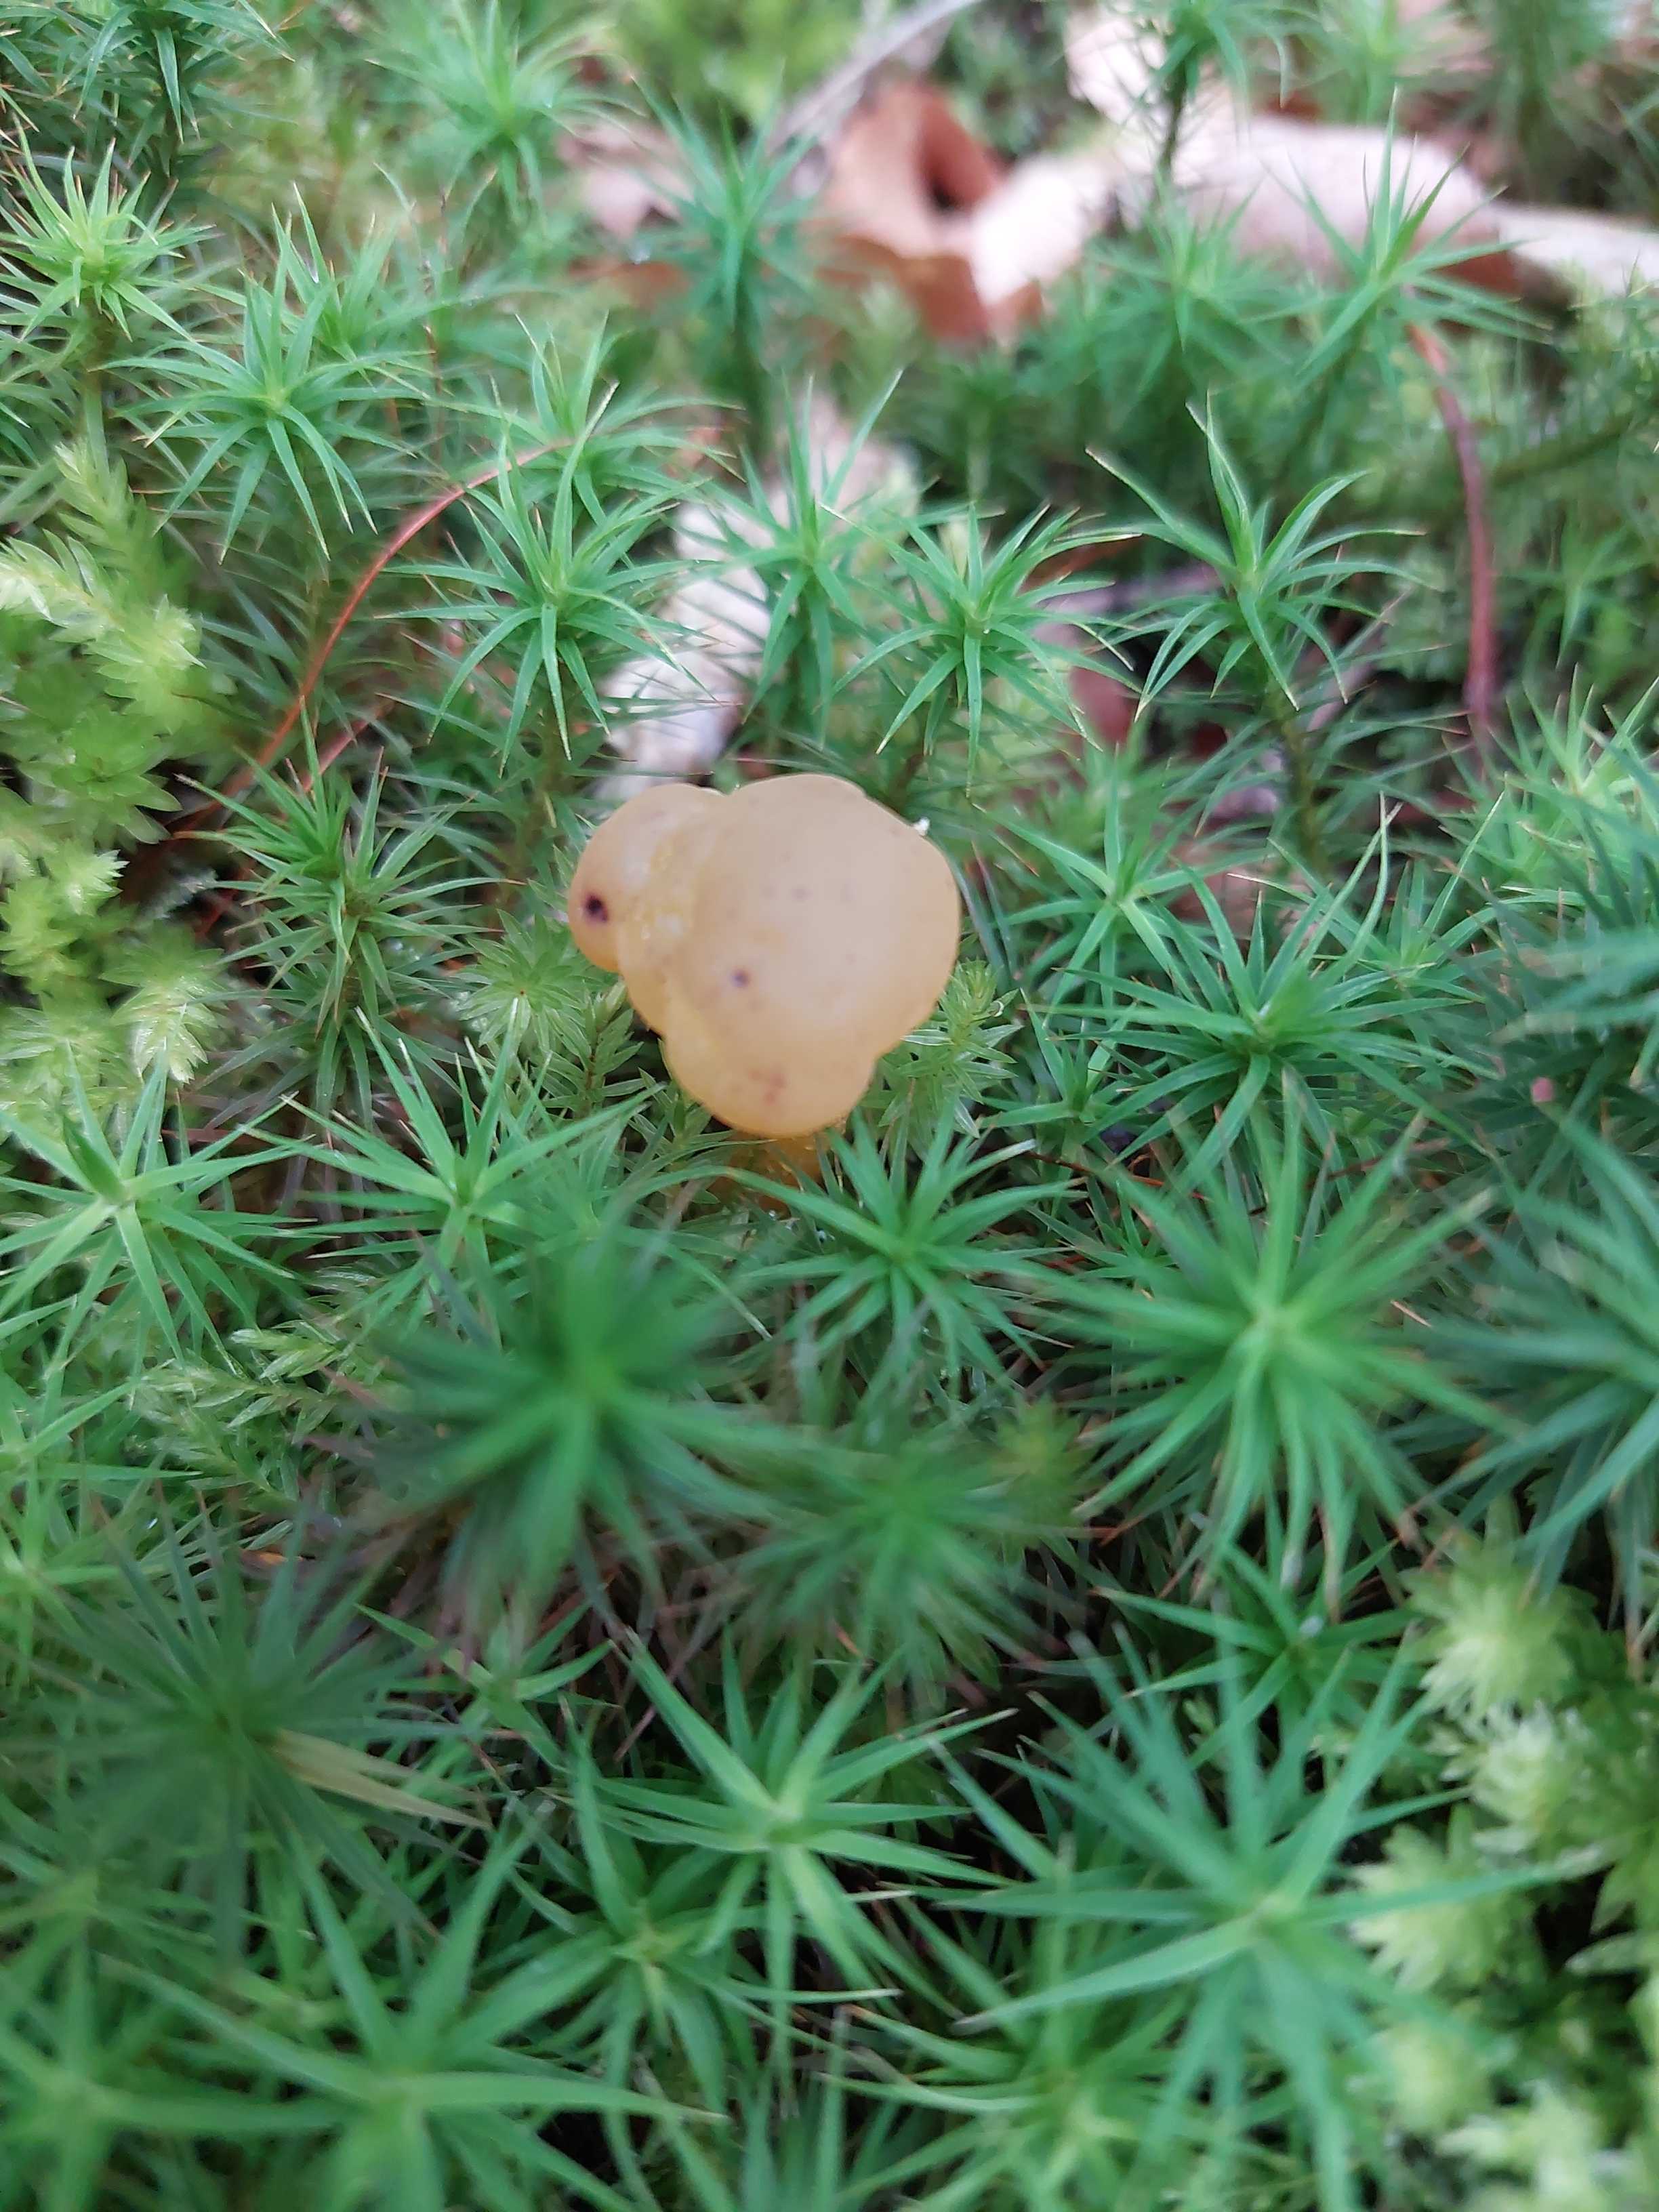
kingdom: Fungi
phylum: Ascomycota
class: Leotiomycetes
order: Leotiales
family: Leotiaceae
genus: Leotia
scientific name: Leotia lubrica
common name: ravsvamp
